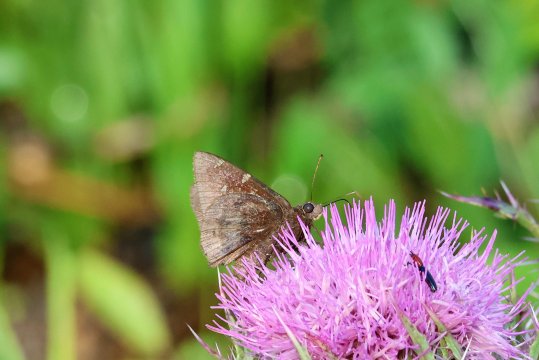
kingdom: Animalia
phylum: Arthropoda
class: Insecta
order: Lepidoptera
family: Hesperiidae
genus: Autochton
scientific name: Autochton
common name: Northern Cloudywing
